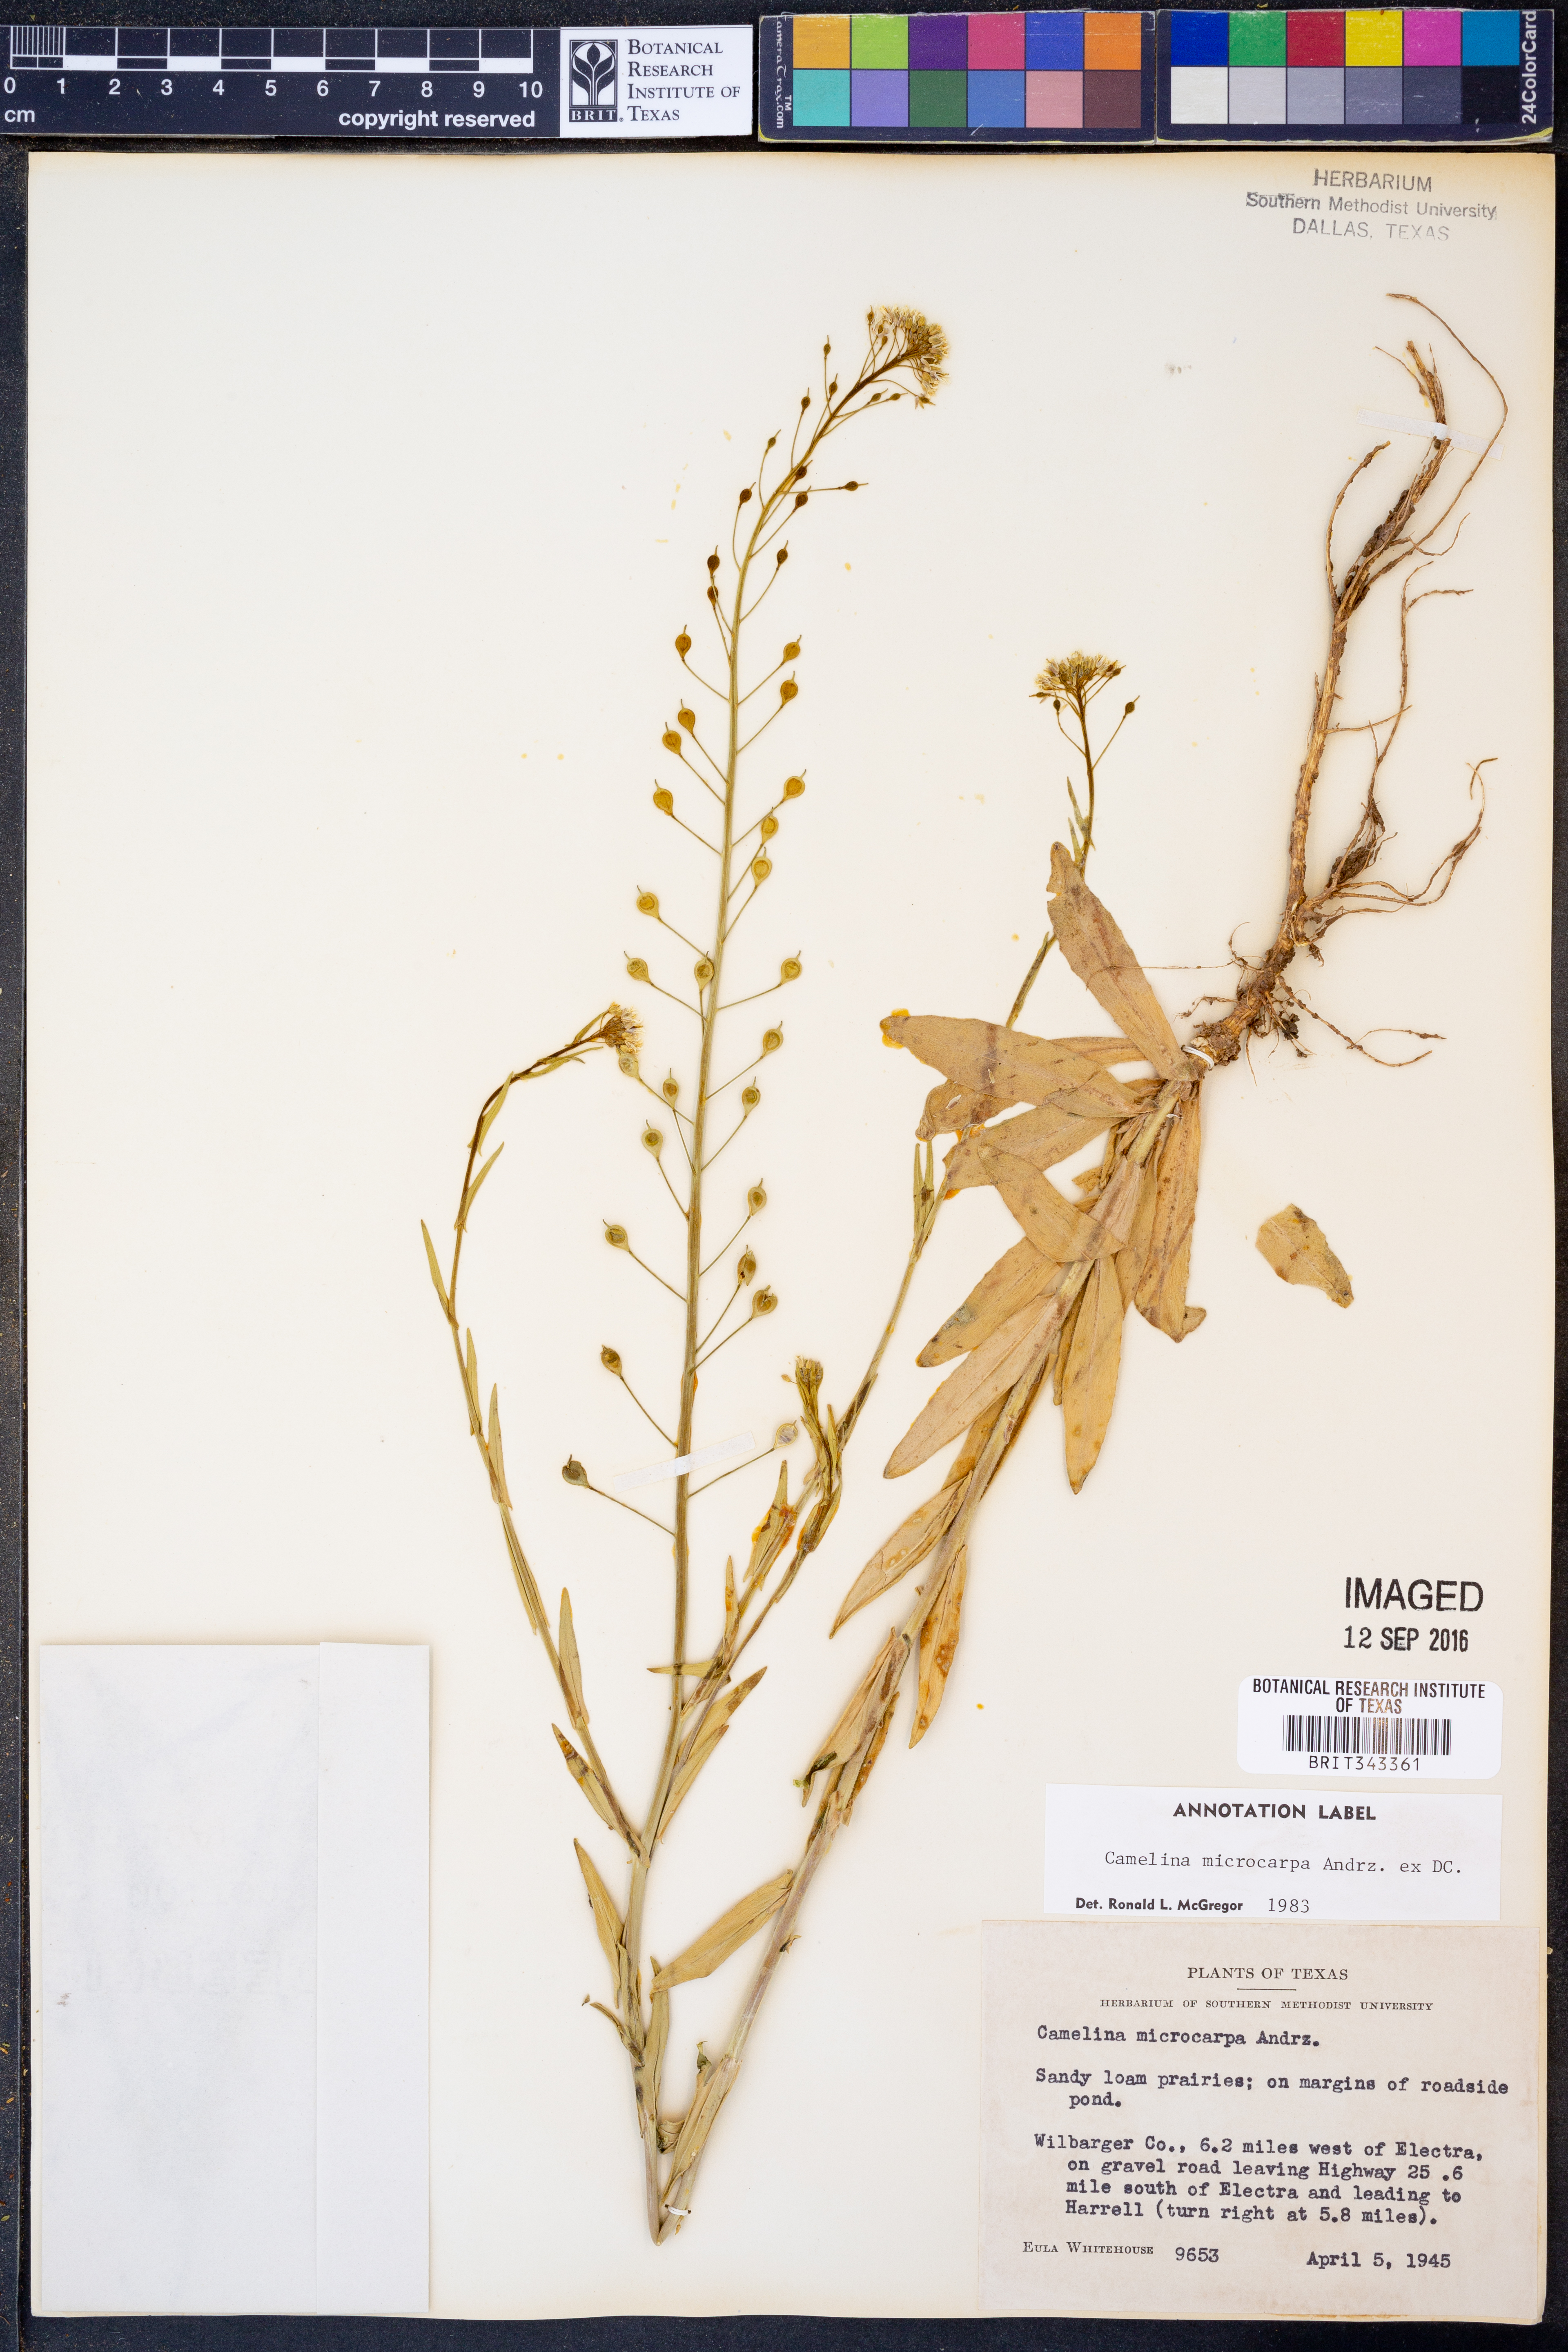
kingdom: Plantae
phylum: Tracheophyta
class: Magnoliopsida
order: Brassicales
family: Brassicaceae
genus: Camelina
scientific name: Camelina microcarpa
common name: Lesser gold-of-pleasure
